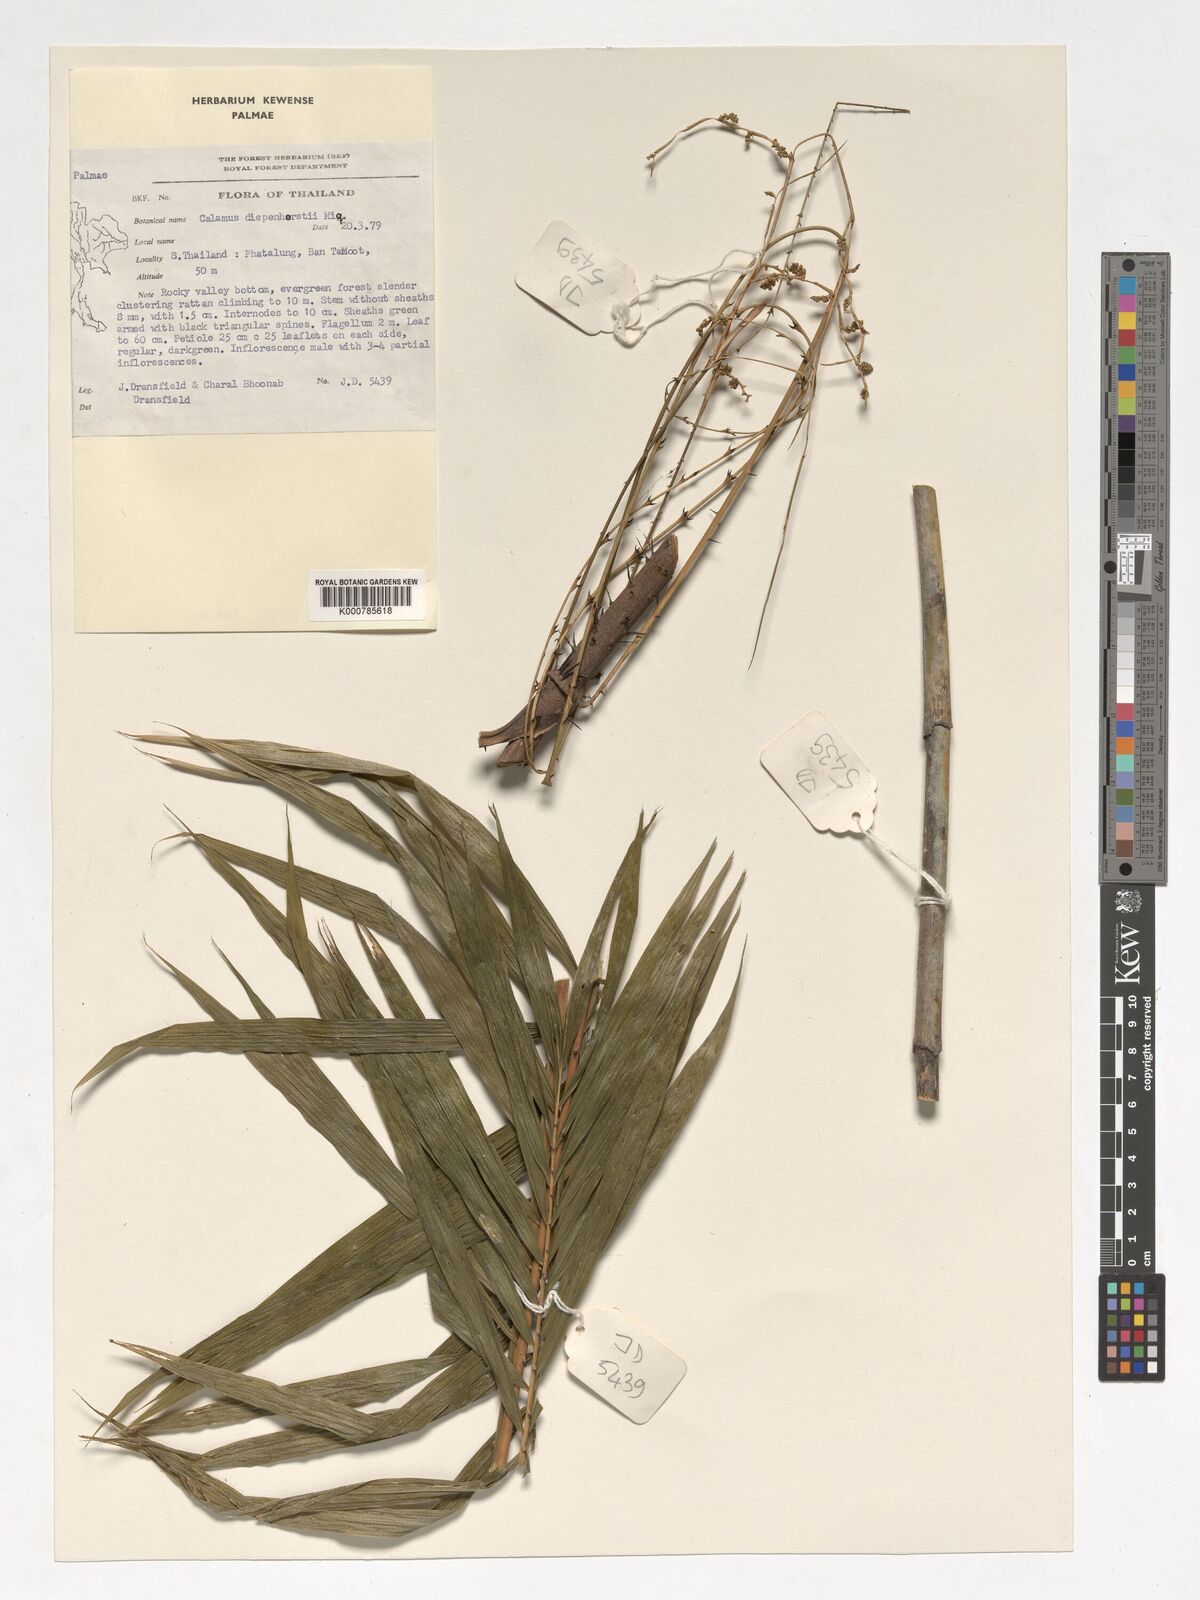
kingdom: Plantae
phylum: Tracheophyta
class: Liliopsida
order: Arecales
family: Arecaceae
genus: Calamus
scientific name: Calamus diepenhorstii
